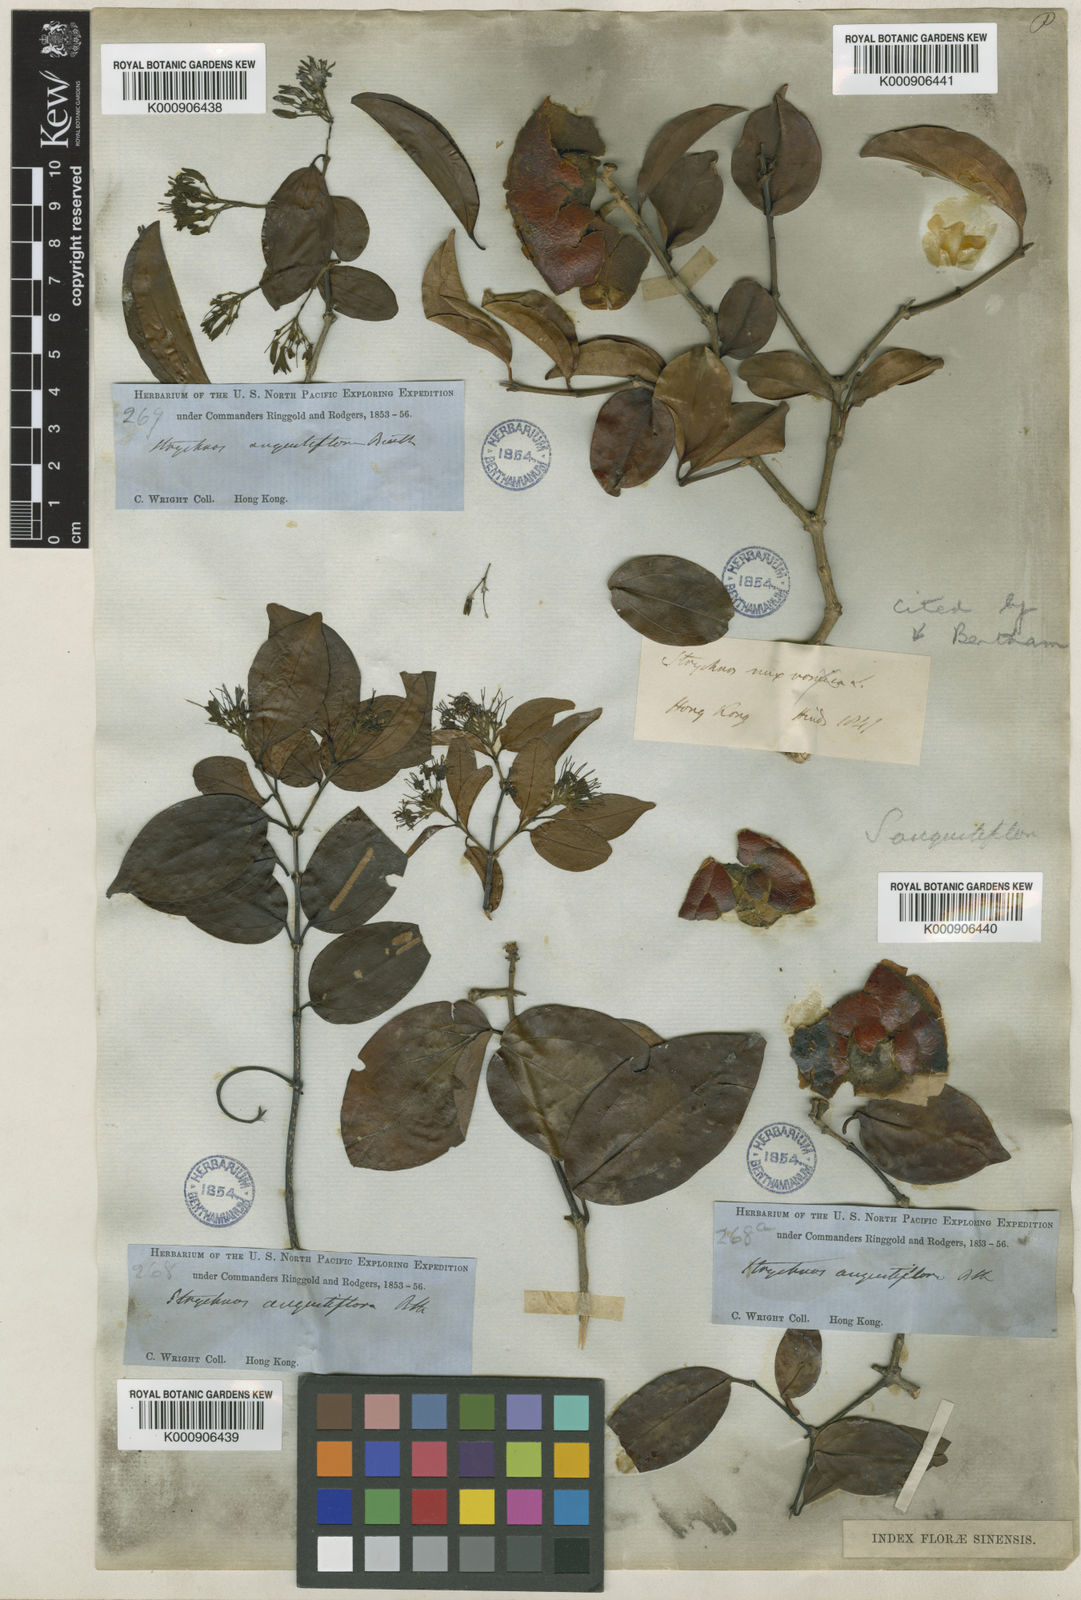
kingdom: Plantae
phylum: Tracheophyta
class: Magnoliopsida
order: Gentianales
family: Loganiaceae
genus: Strychnos
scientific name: Strychnos angustiflora
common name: Narrow-flower poisonnut
